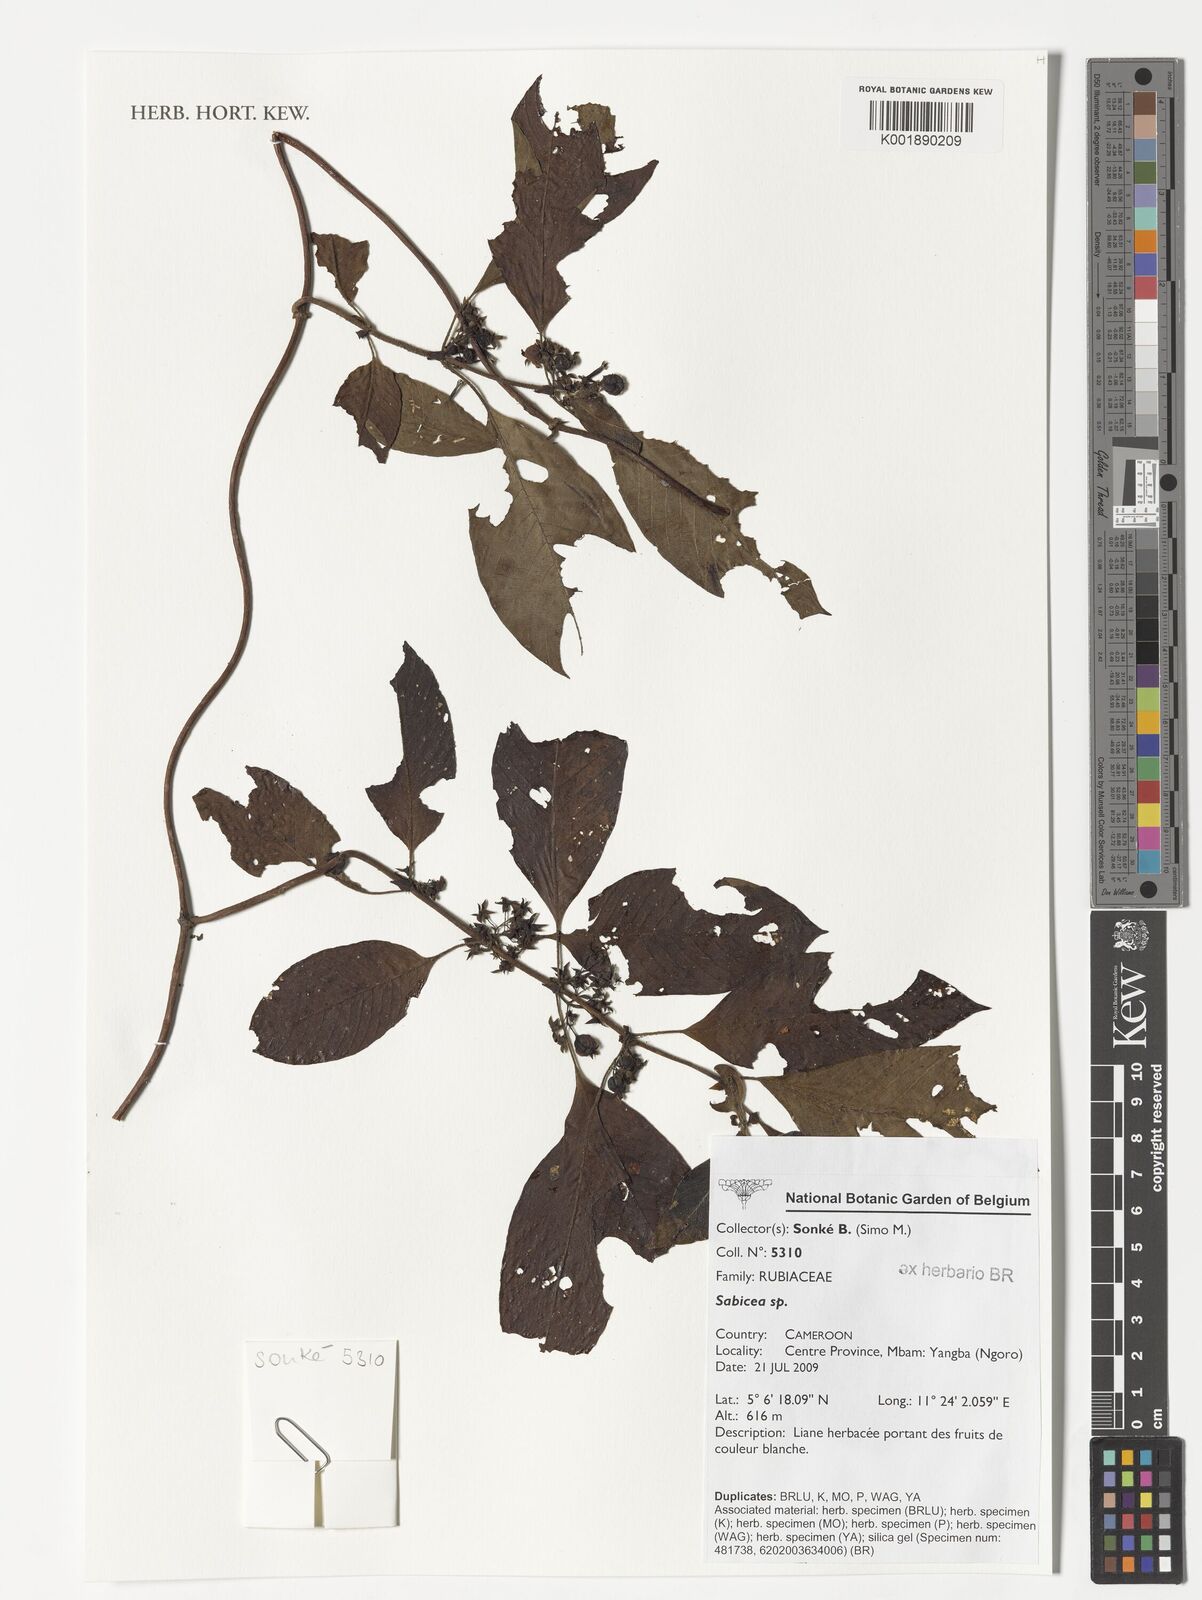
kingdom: Plantae
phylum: Tracheophyta
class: Magnoliopsida
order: Gentianales
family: Rubiaceae
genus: Sabicea
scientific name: Sabicea
